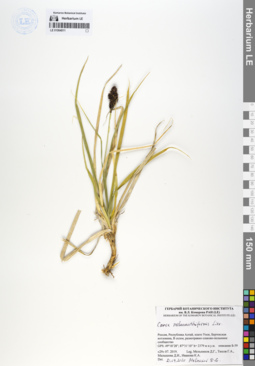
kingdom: Plantae
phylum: Tracheophyta
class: Liliopsida
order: Poales
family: Cyperaceae
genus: Carex
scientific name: Carex melananthiformis
